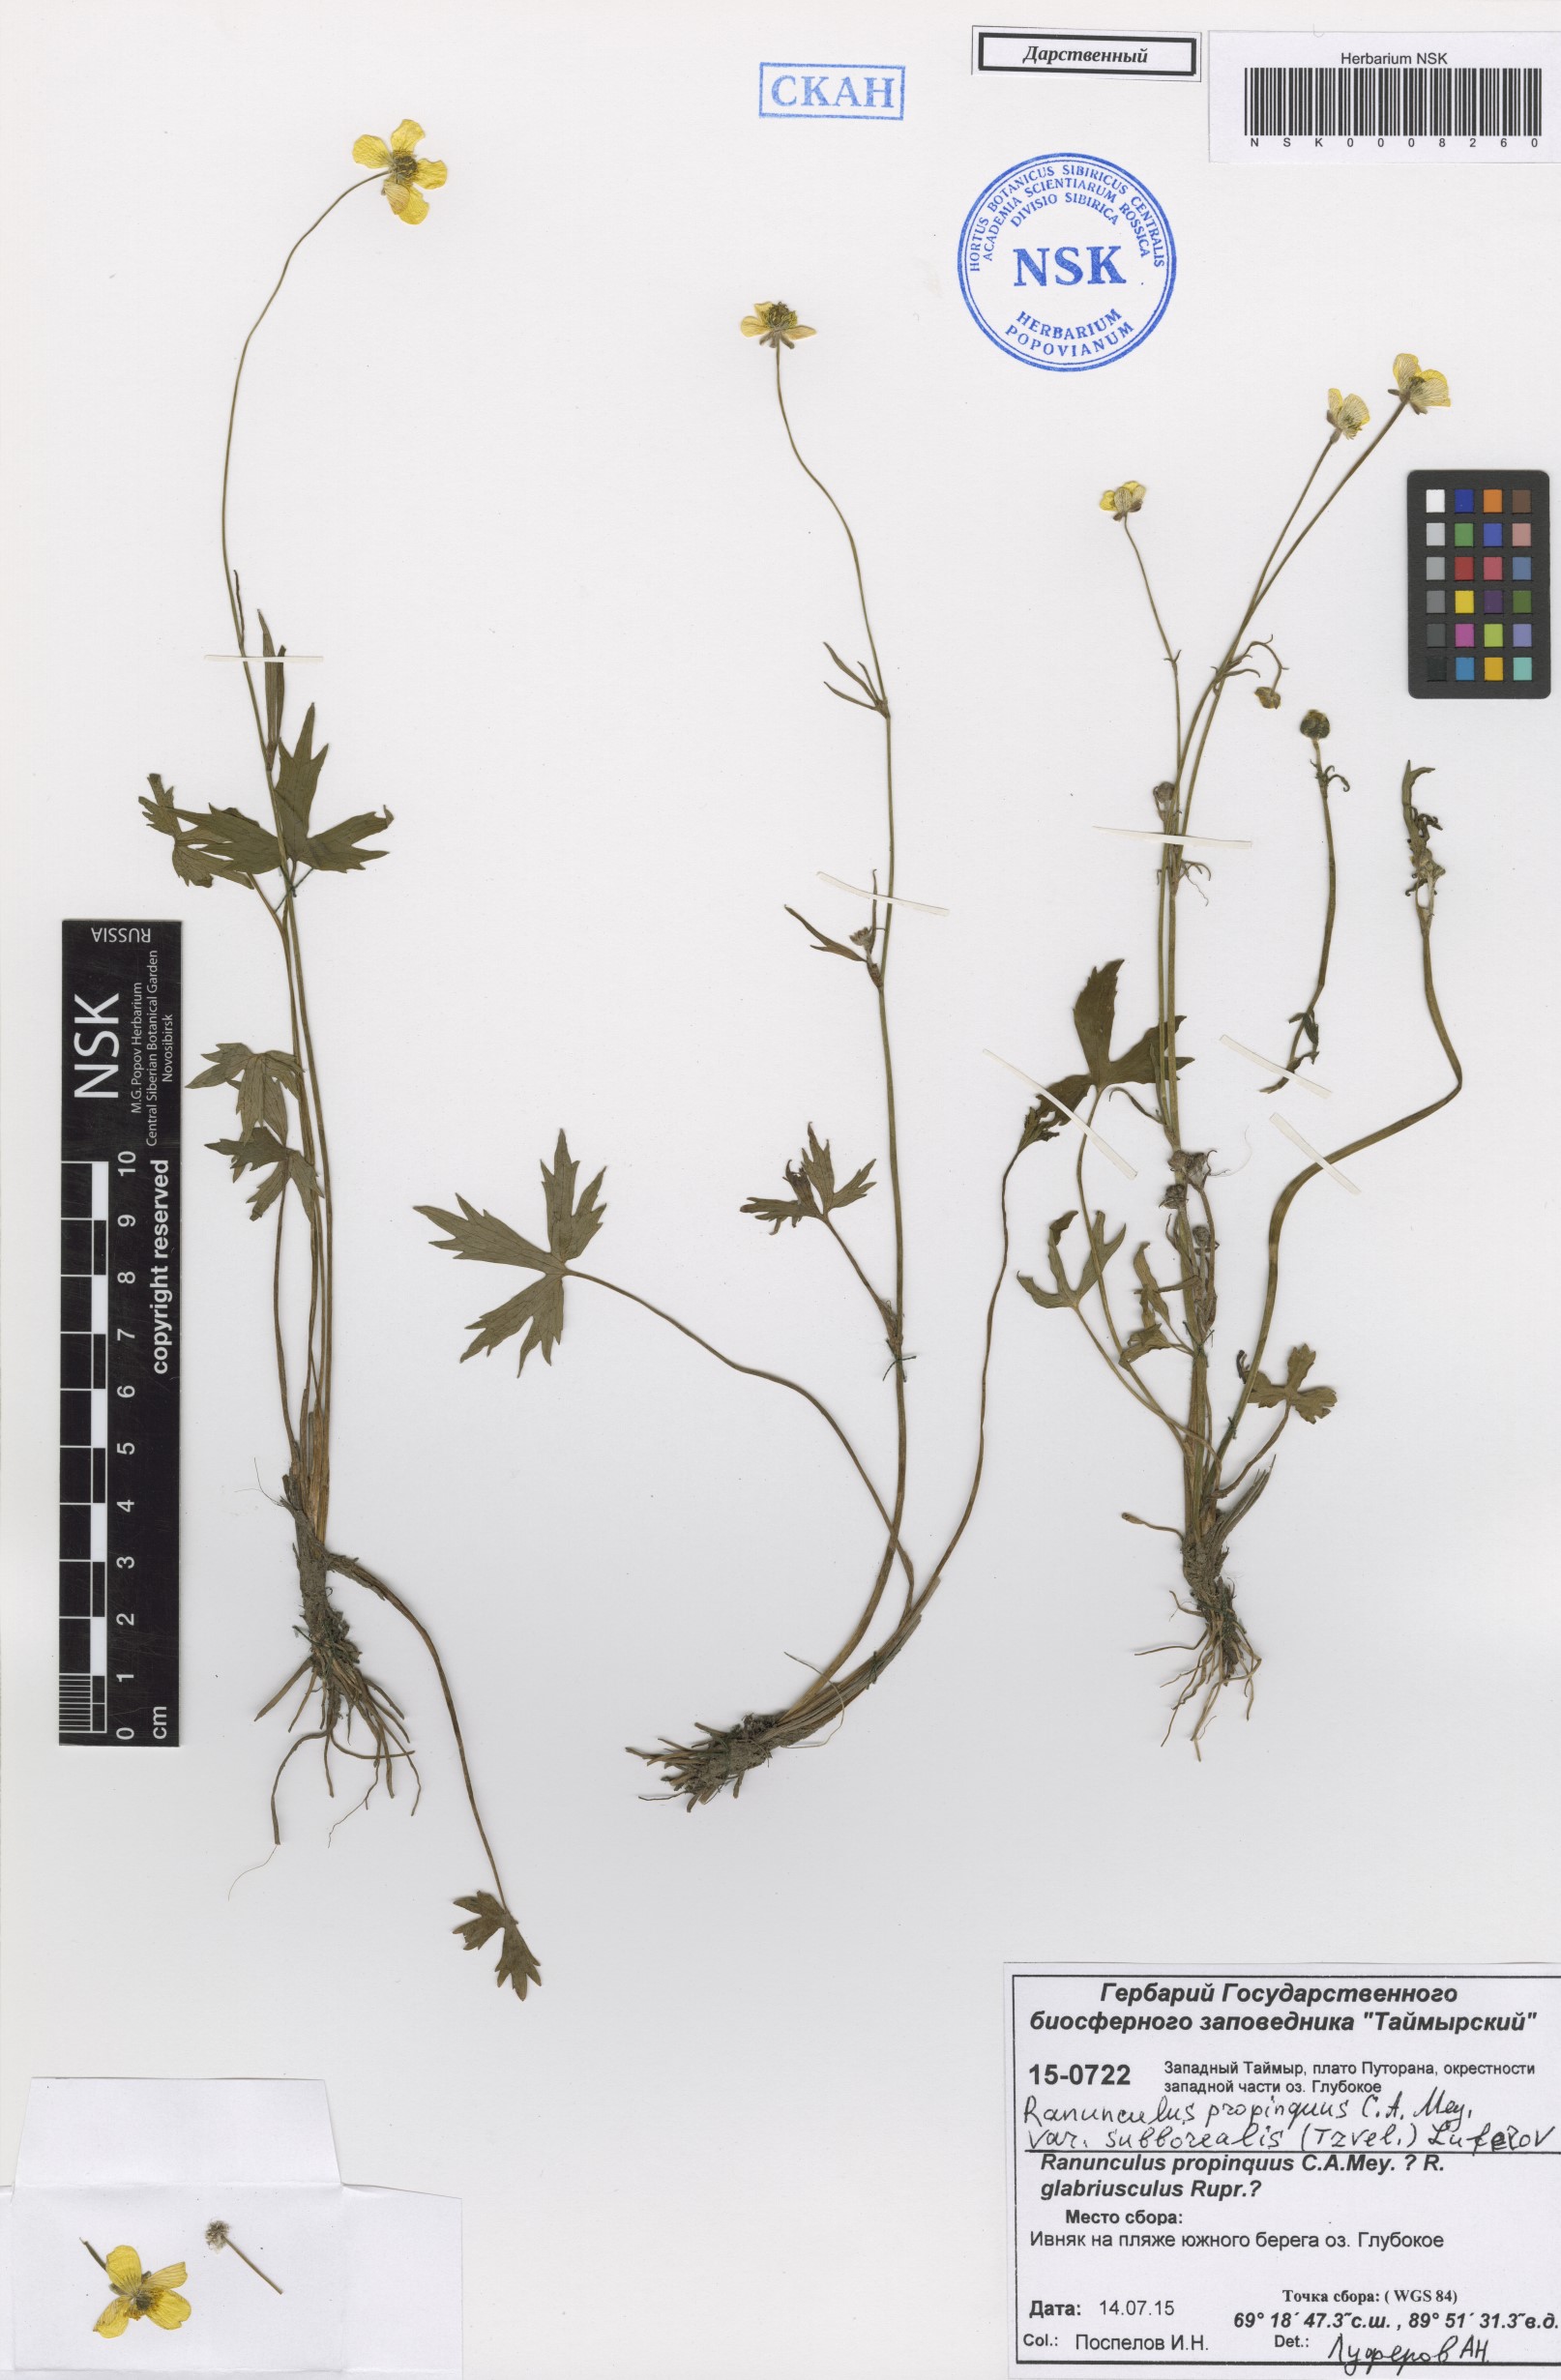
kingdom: Plantae
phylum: Tracheophyta
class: Magnoliopsida
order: Ranunculales
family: Ranunculaceae
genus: Ranunculus
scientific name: Ranunculus propinquus
